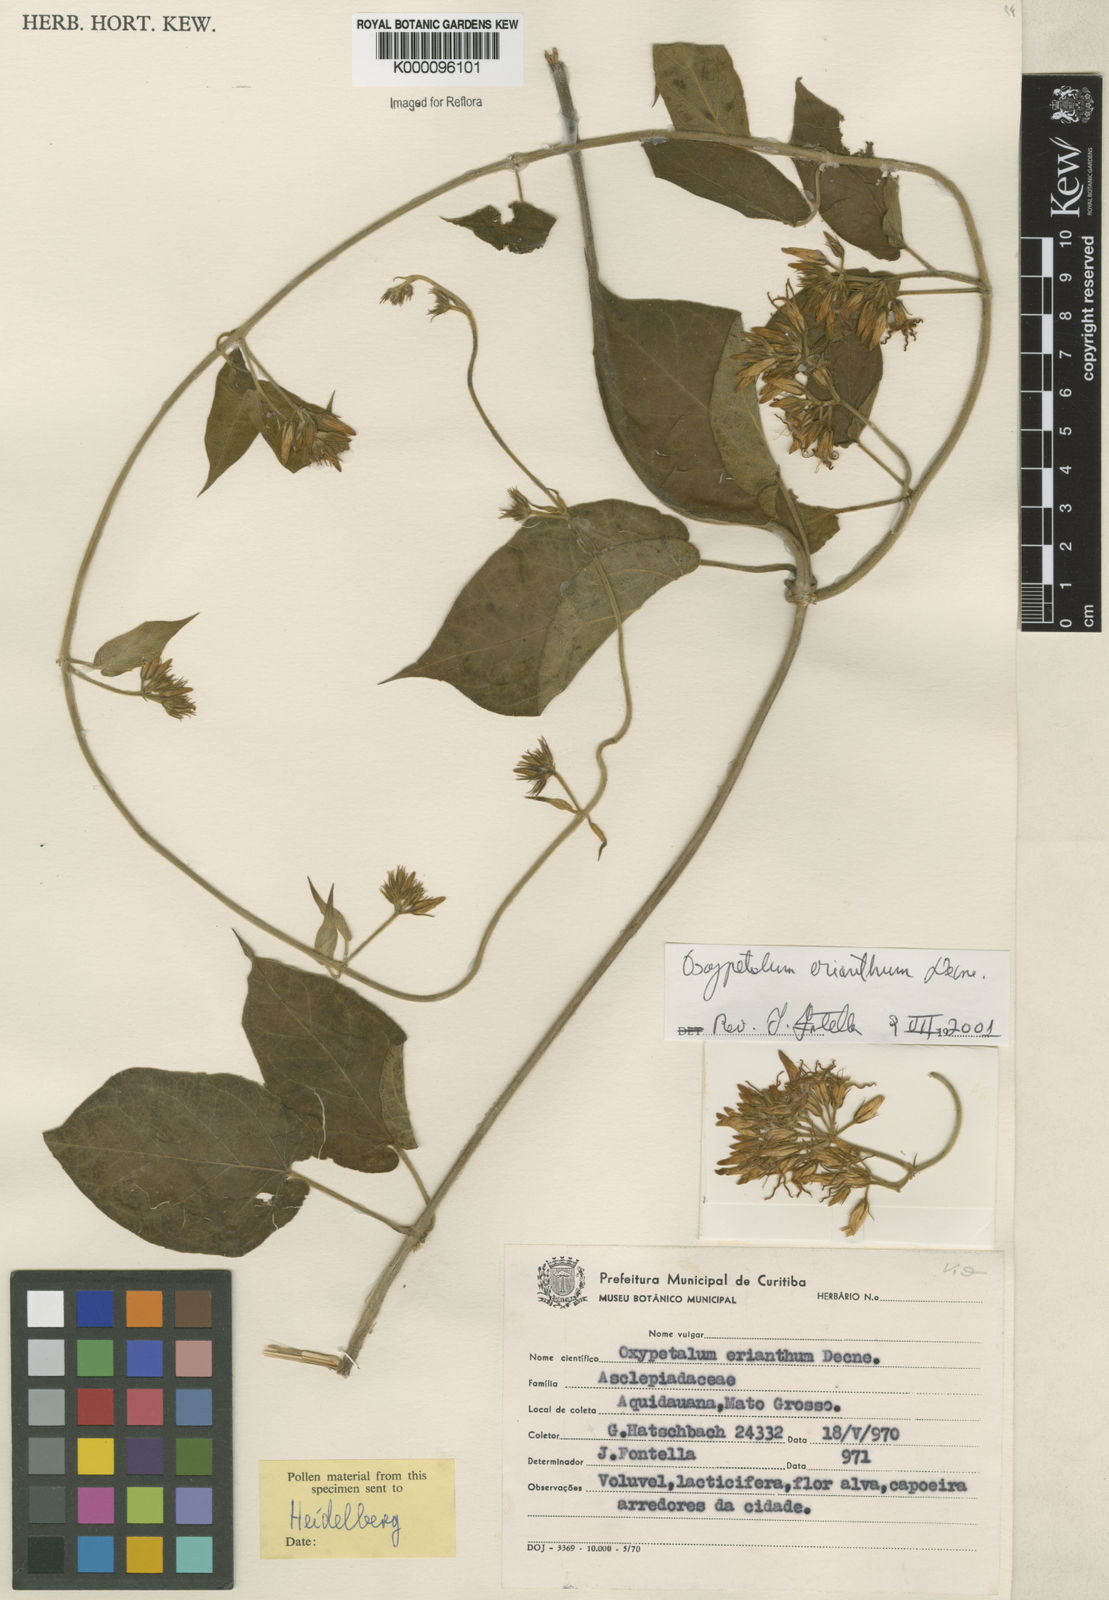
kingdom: Plantae
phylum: Tracheophyta
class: Magnoliopsida
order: Gentianales
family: Apocynaceae
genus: Oxypetalum
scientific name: Oxypetalum erianthum
